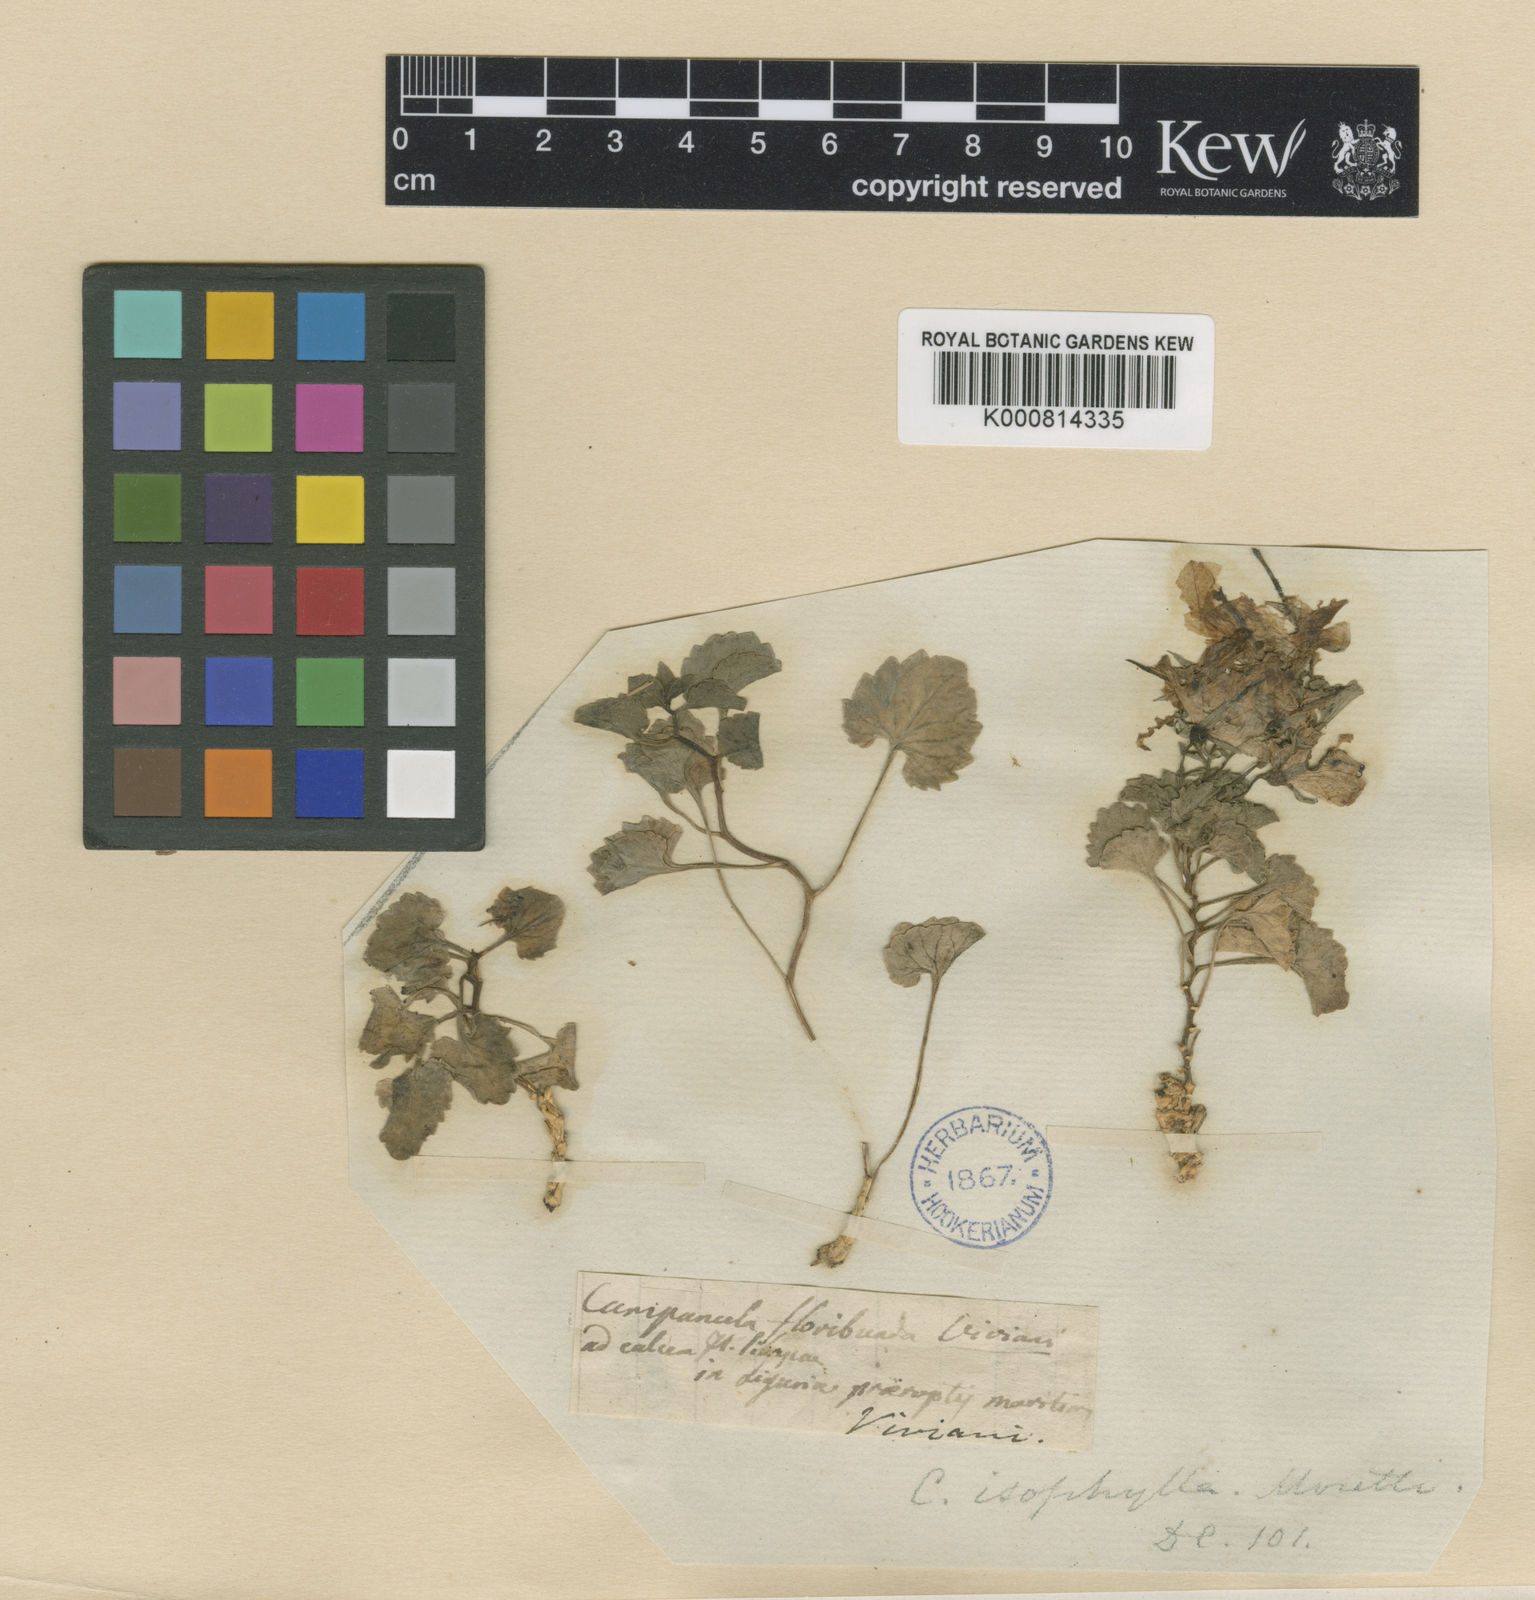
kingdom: Plantae
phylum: Tracheophyta
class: Magnoliopsida
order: Asterales
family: Campanulaceae
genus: Campanula
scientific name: Campanula isophylla
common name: Falling-stars
